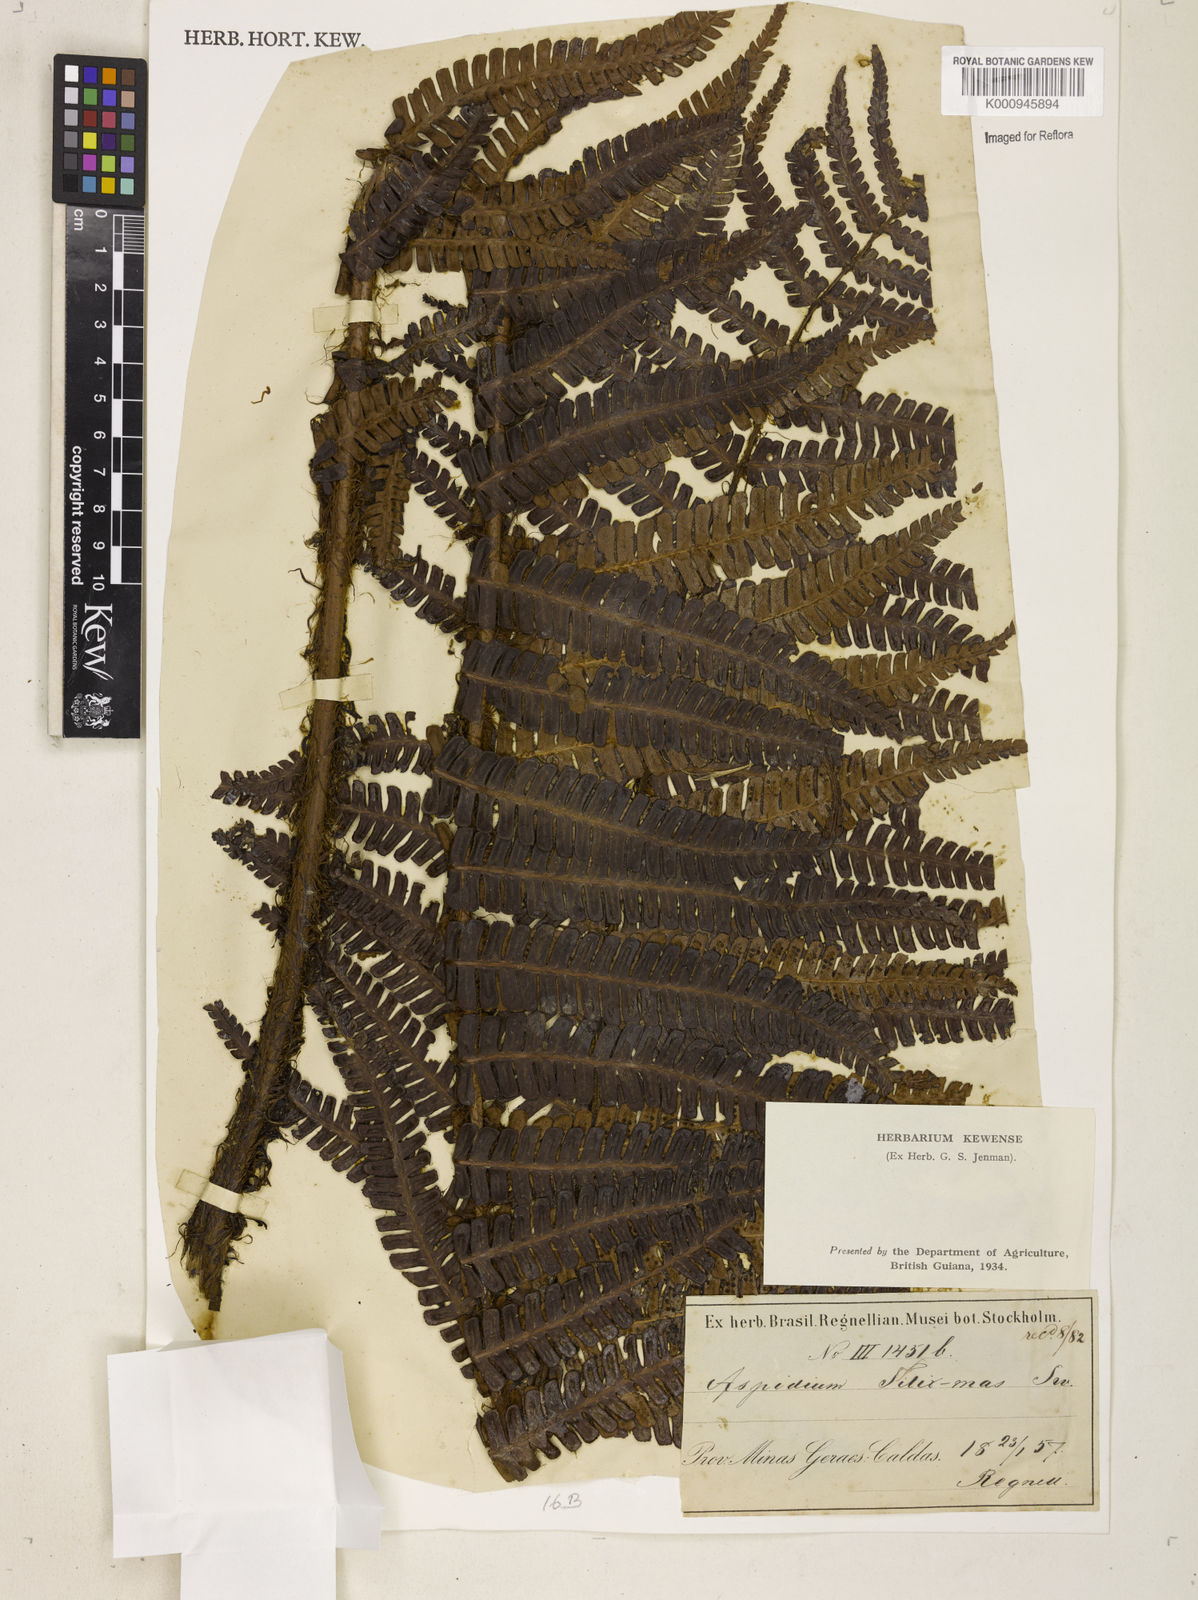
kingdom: Plantae
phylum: Tracheophyta
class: Polypodiopsida
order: Polypodiales
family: Dryopteridaceae
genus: Dryopteris
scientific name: Dryopteris
